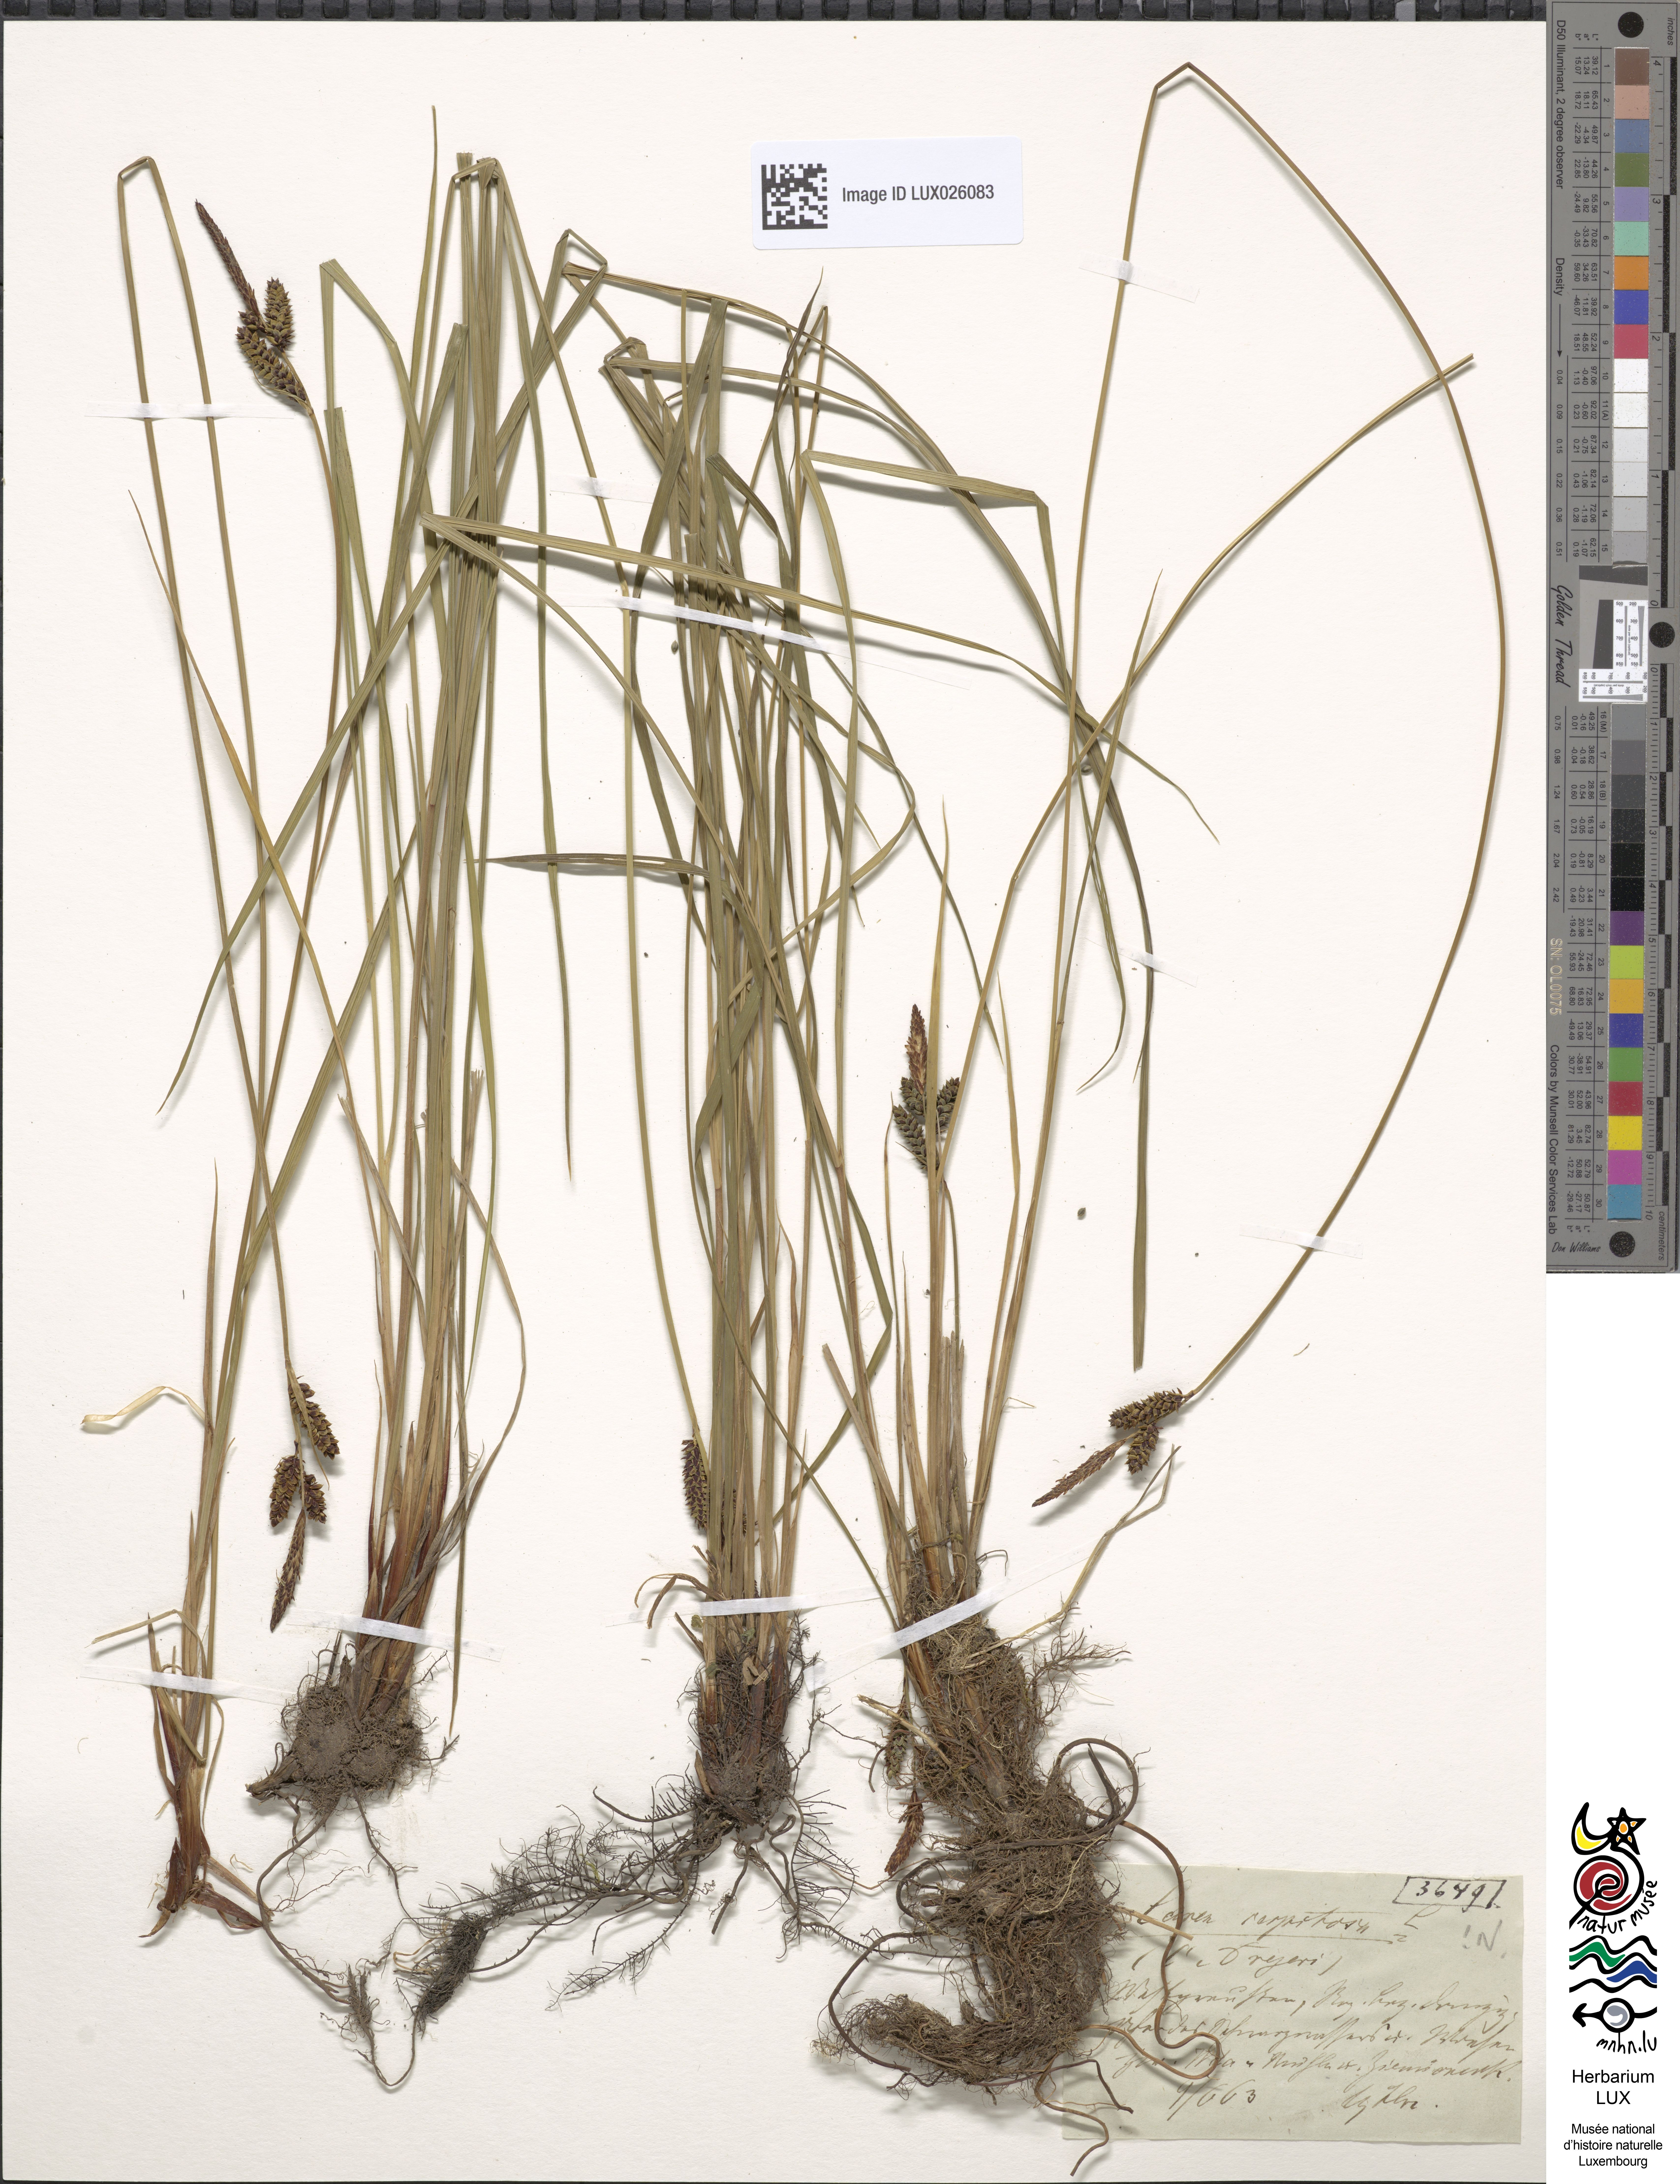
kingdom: Plantae
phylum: Tracheophyta
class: Liliopsida
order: Poales
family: Cyperaceae
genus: Carex
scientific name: Carex cespitosa
